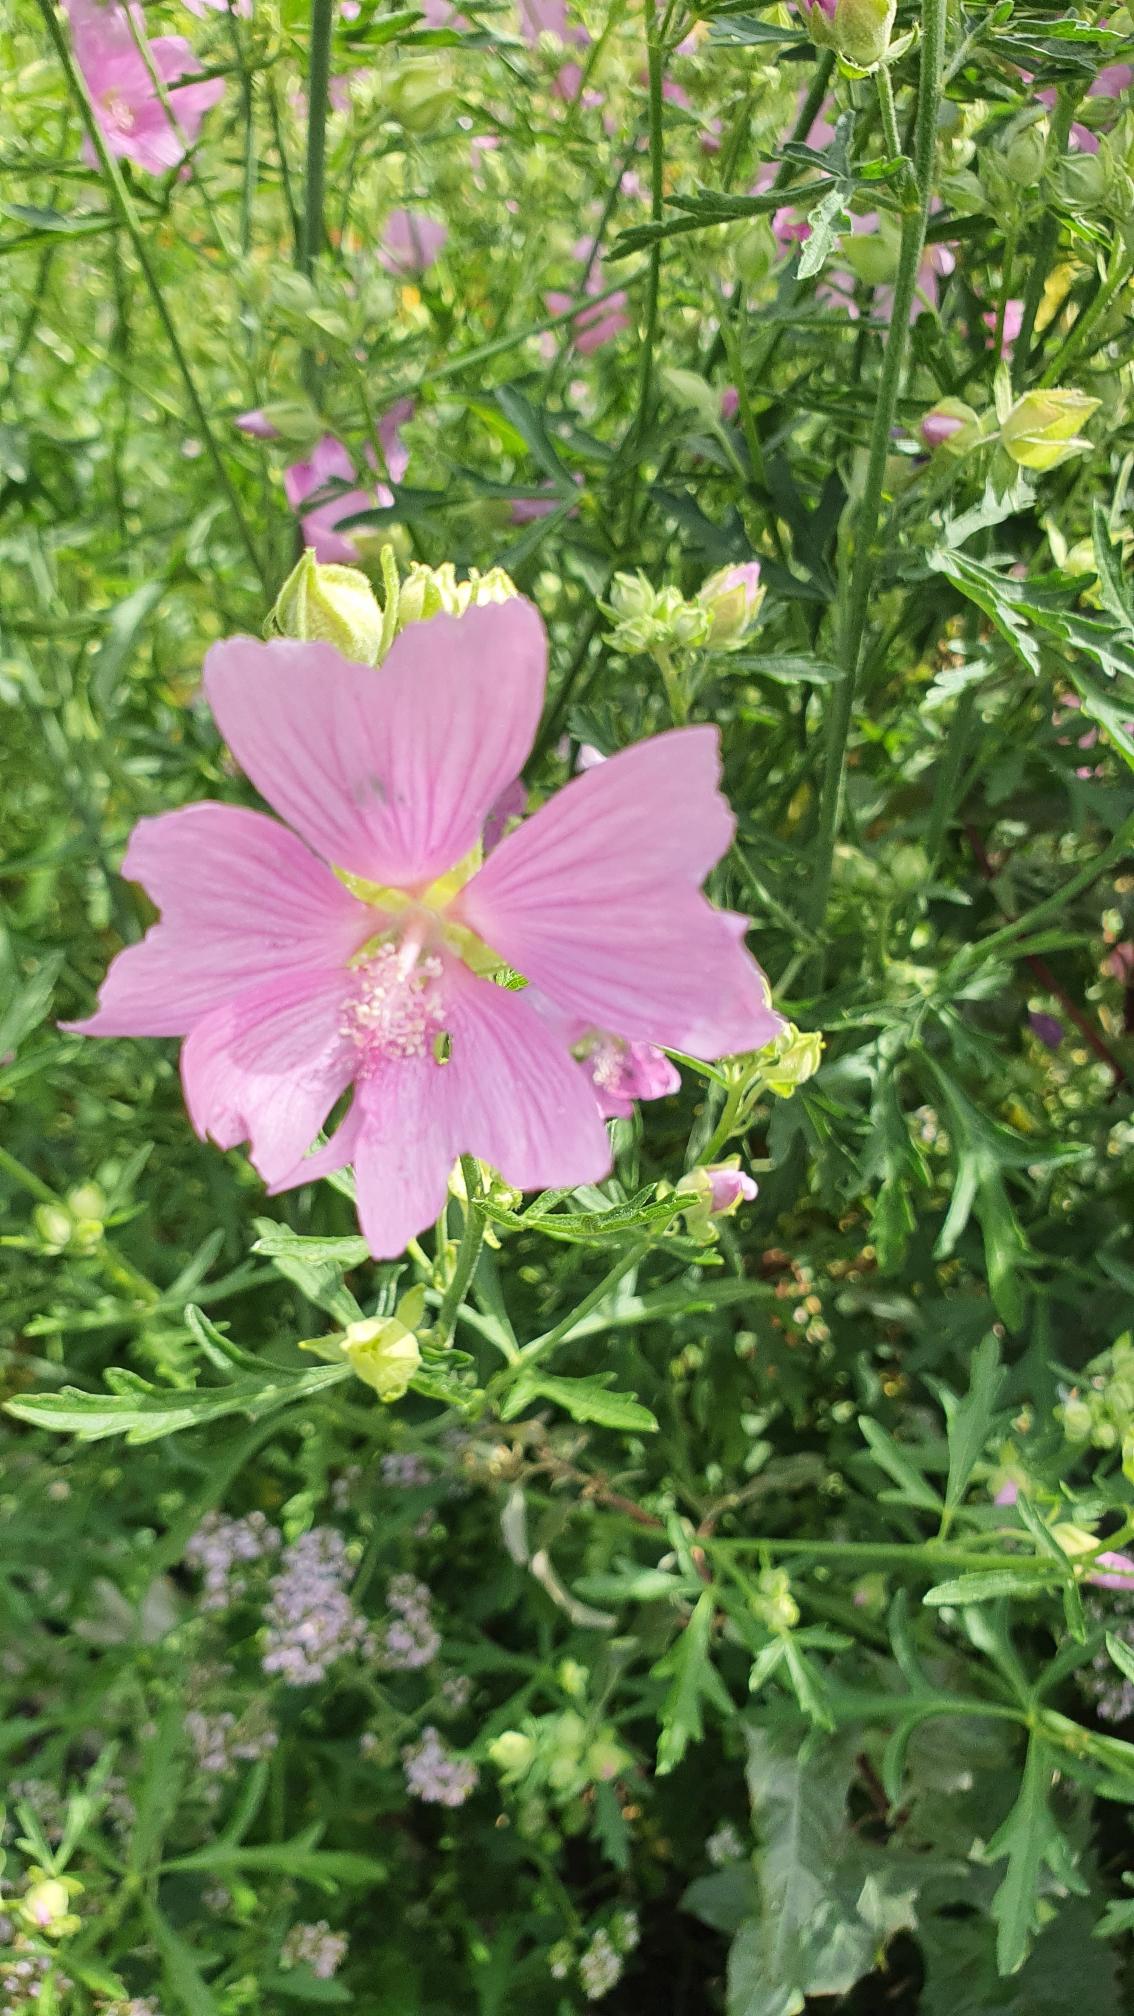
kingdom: Plantae
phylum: Tracheophyta
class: Magnoliopsida
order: Malvales
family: Malvaceae
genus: Malva
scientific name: Malva alcea
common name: Rosen-katost
